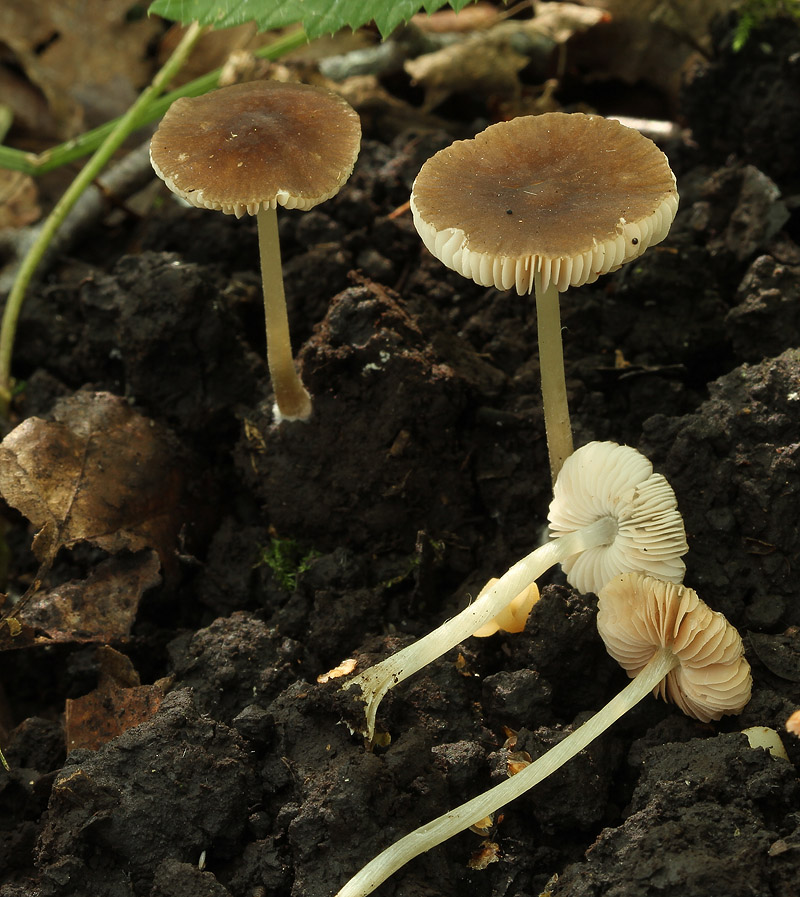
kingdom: Fungi
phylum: Basidiomycota
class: Agaricomycetes
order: Agaricales
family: Pluteaceae
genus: Pluteus
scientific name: Pluteus satur
